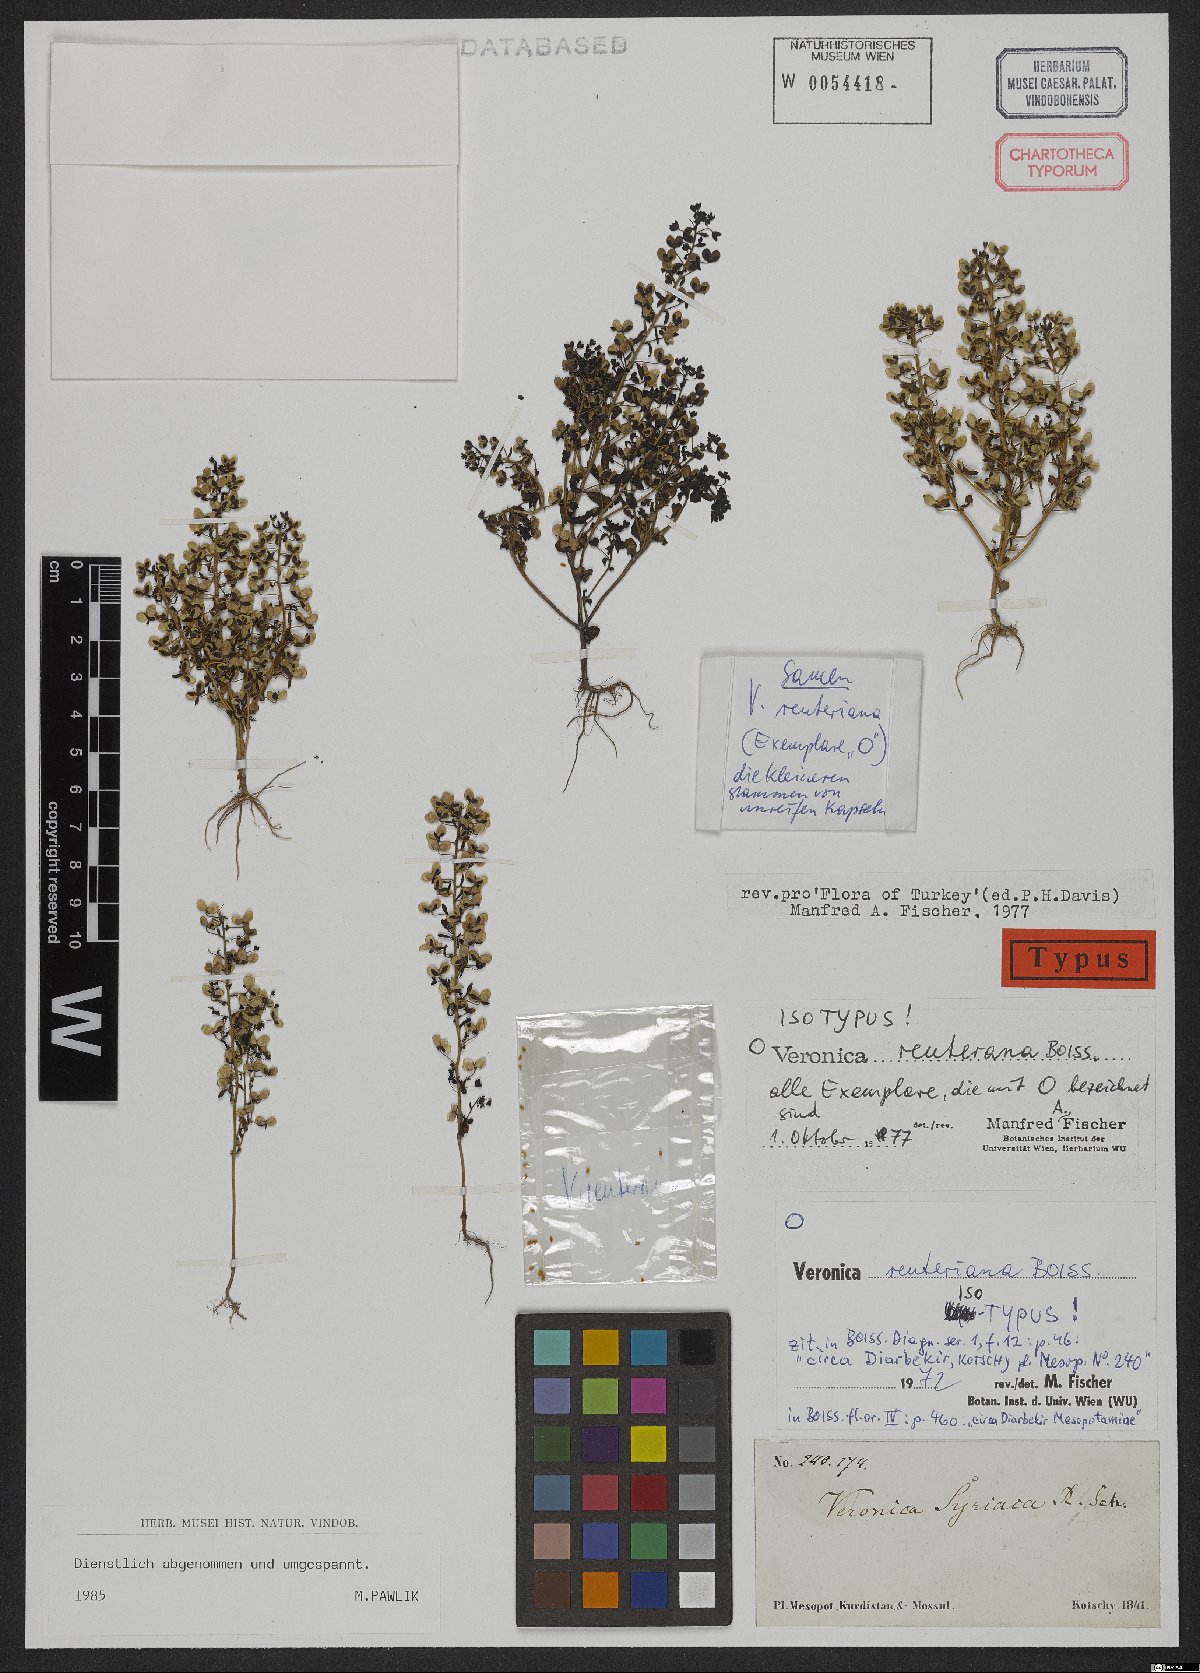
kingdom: Plantae
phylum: Tracheophyta
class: Magnoliopsida
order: Lamiales
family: Plantaginaceae
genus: Veronica
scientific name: Veronica reuteriana
